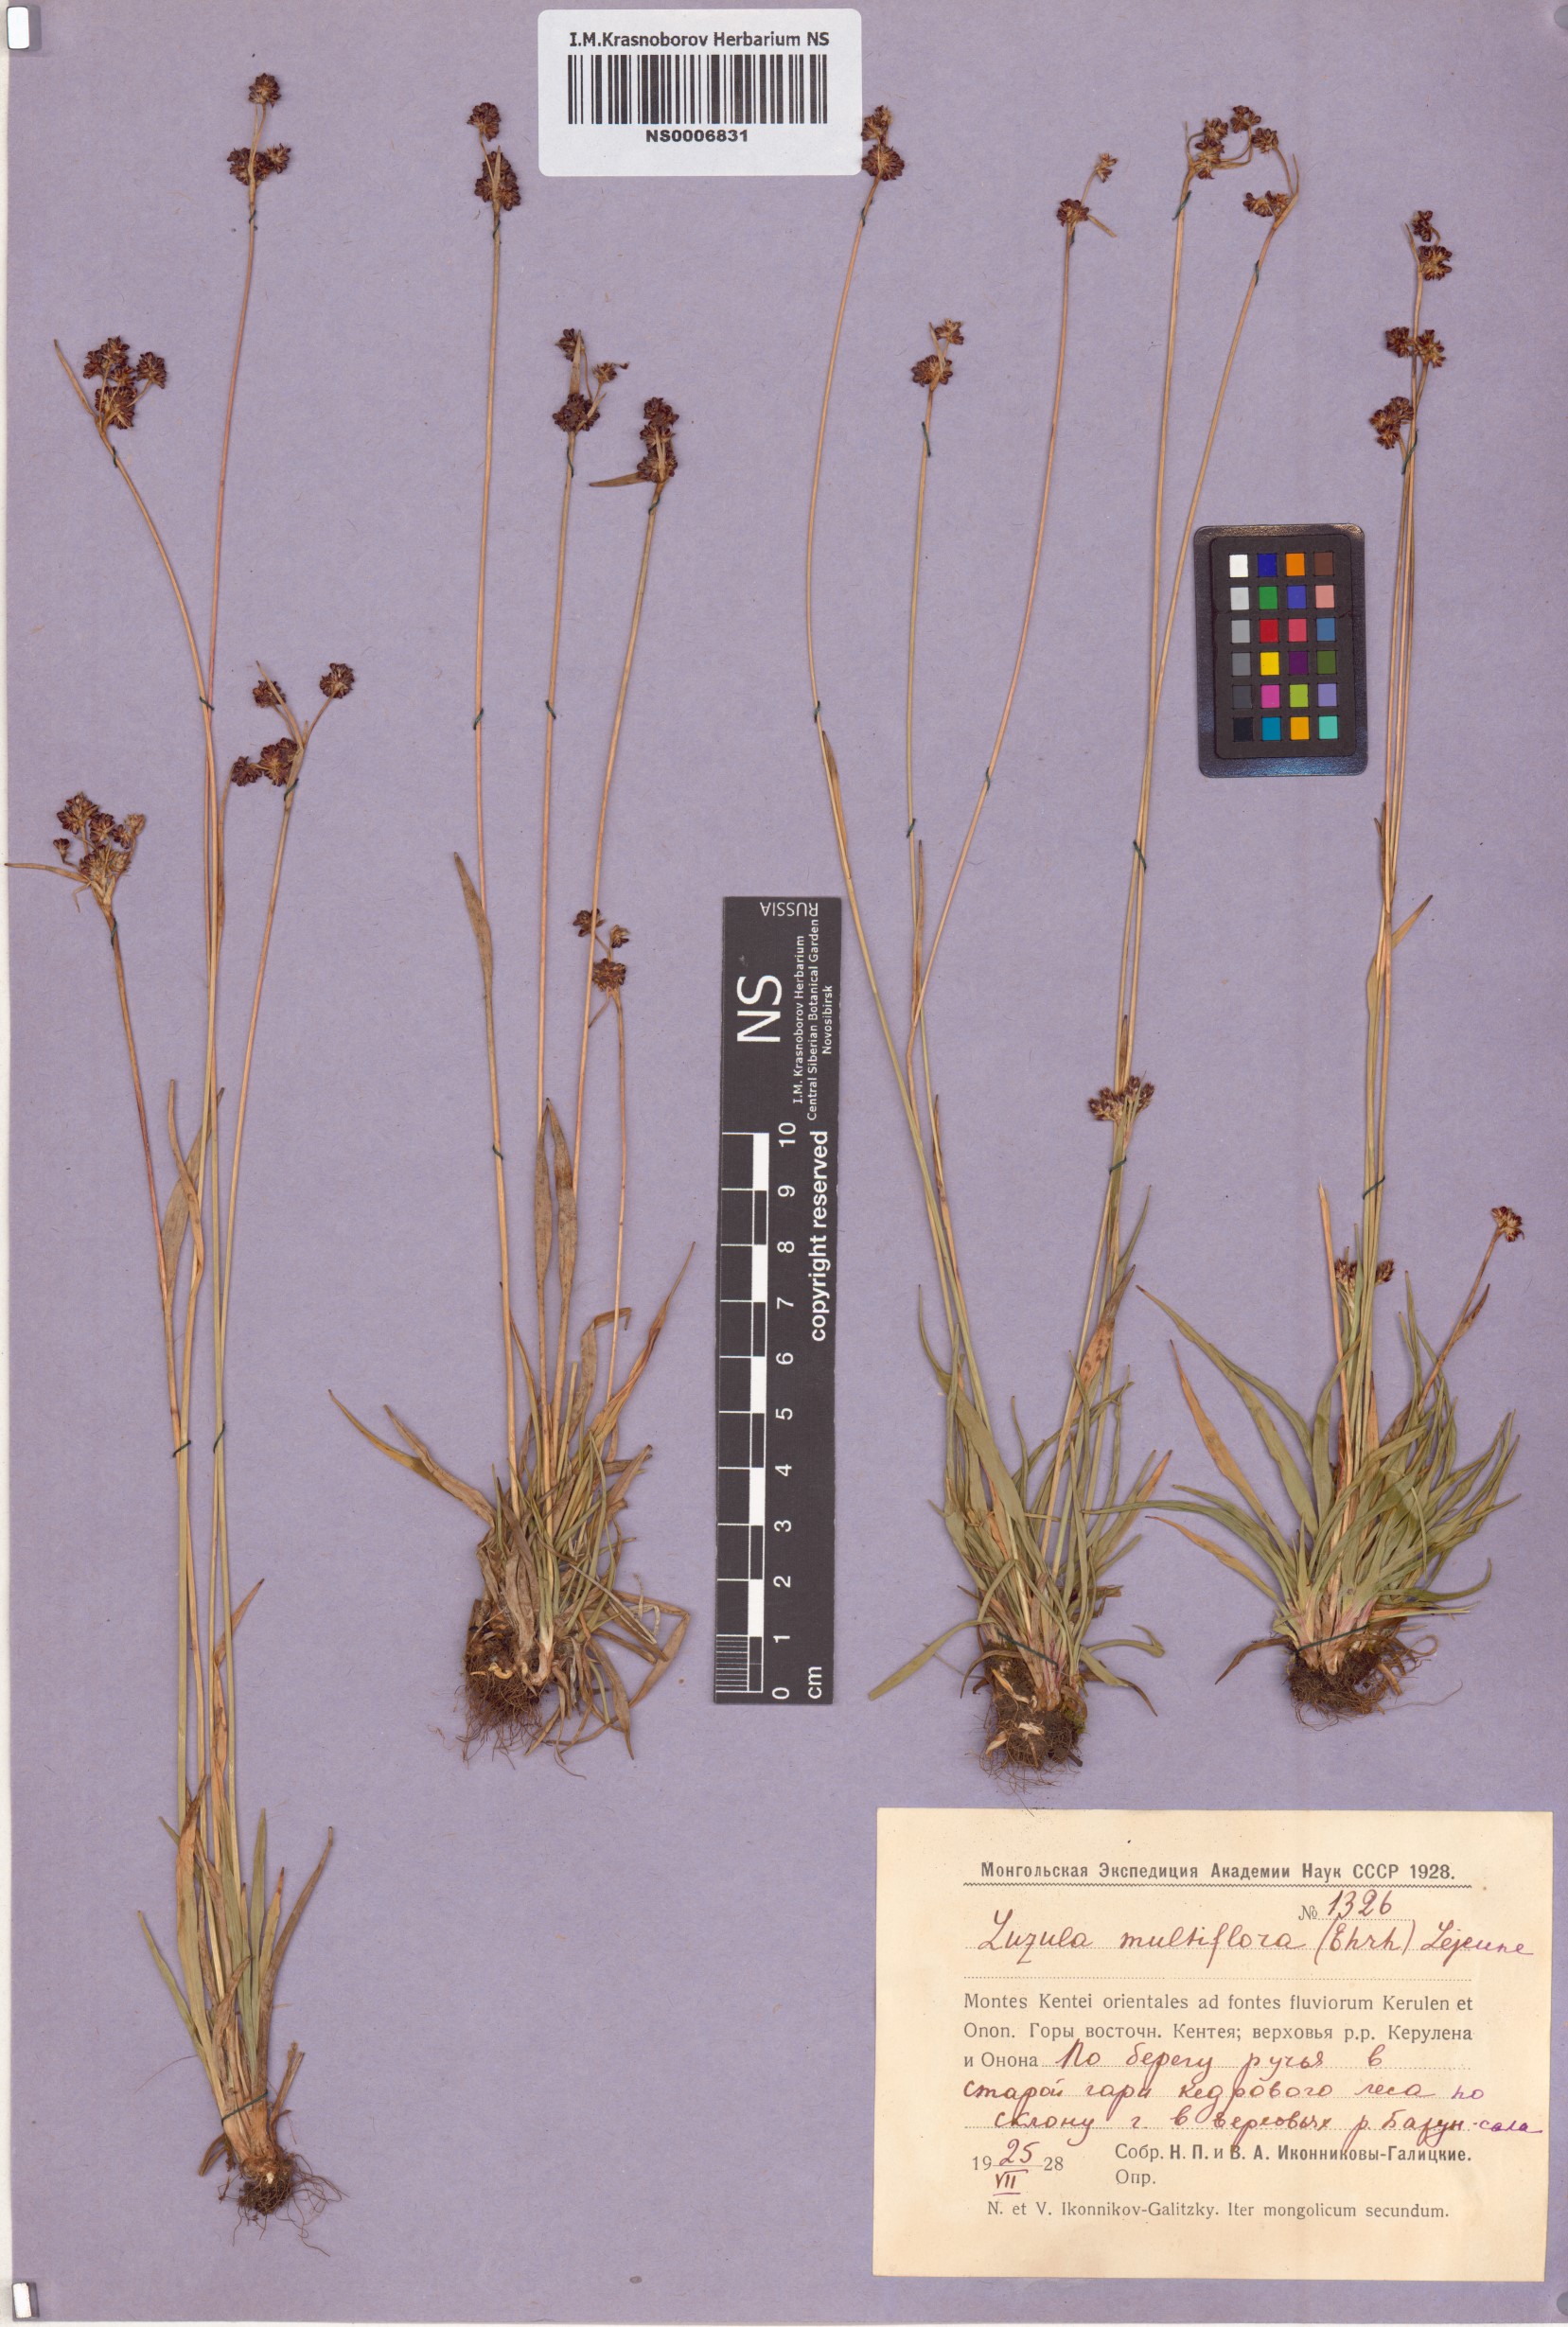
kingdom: Plantae
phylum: Tracheophyta
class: Liliopsida
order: Poales
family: Juncaceae
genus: Luzula
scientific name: Luzula multiflora
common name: Heath wood-rush
